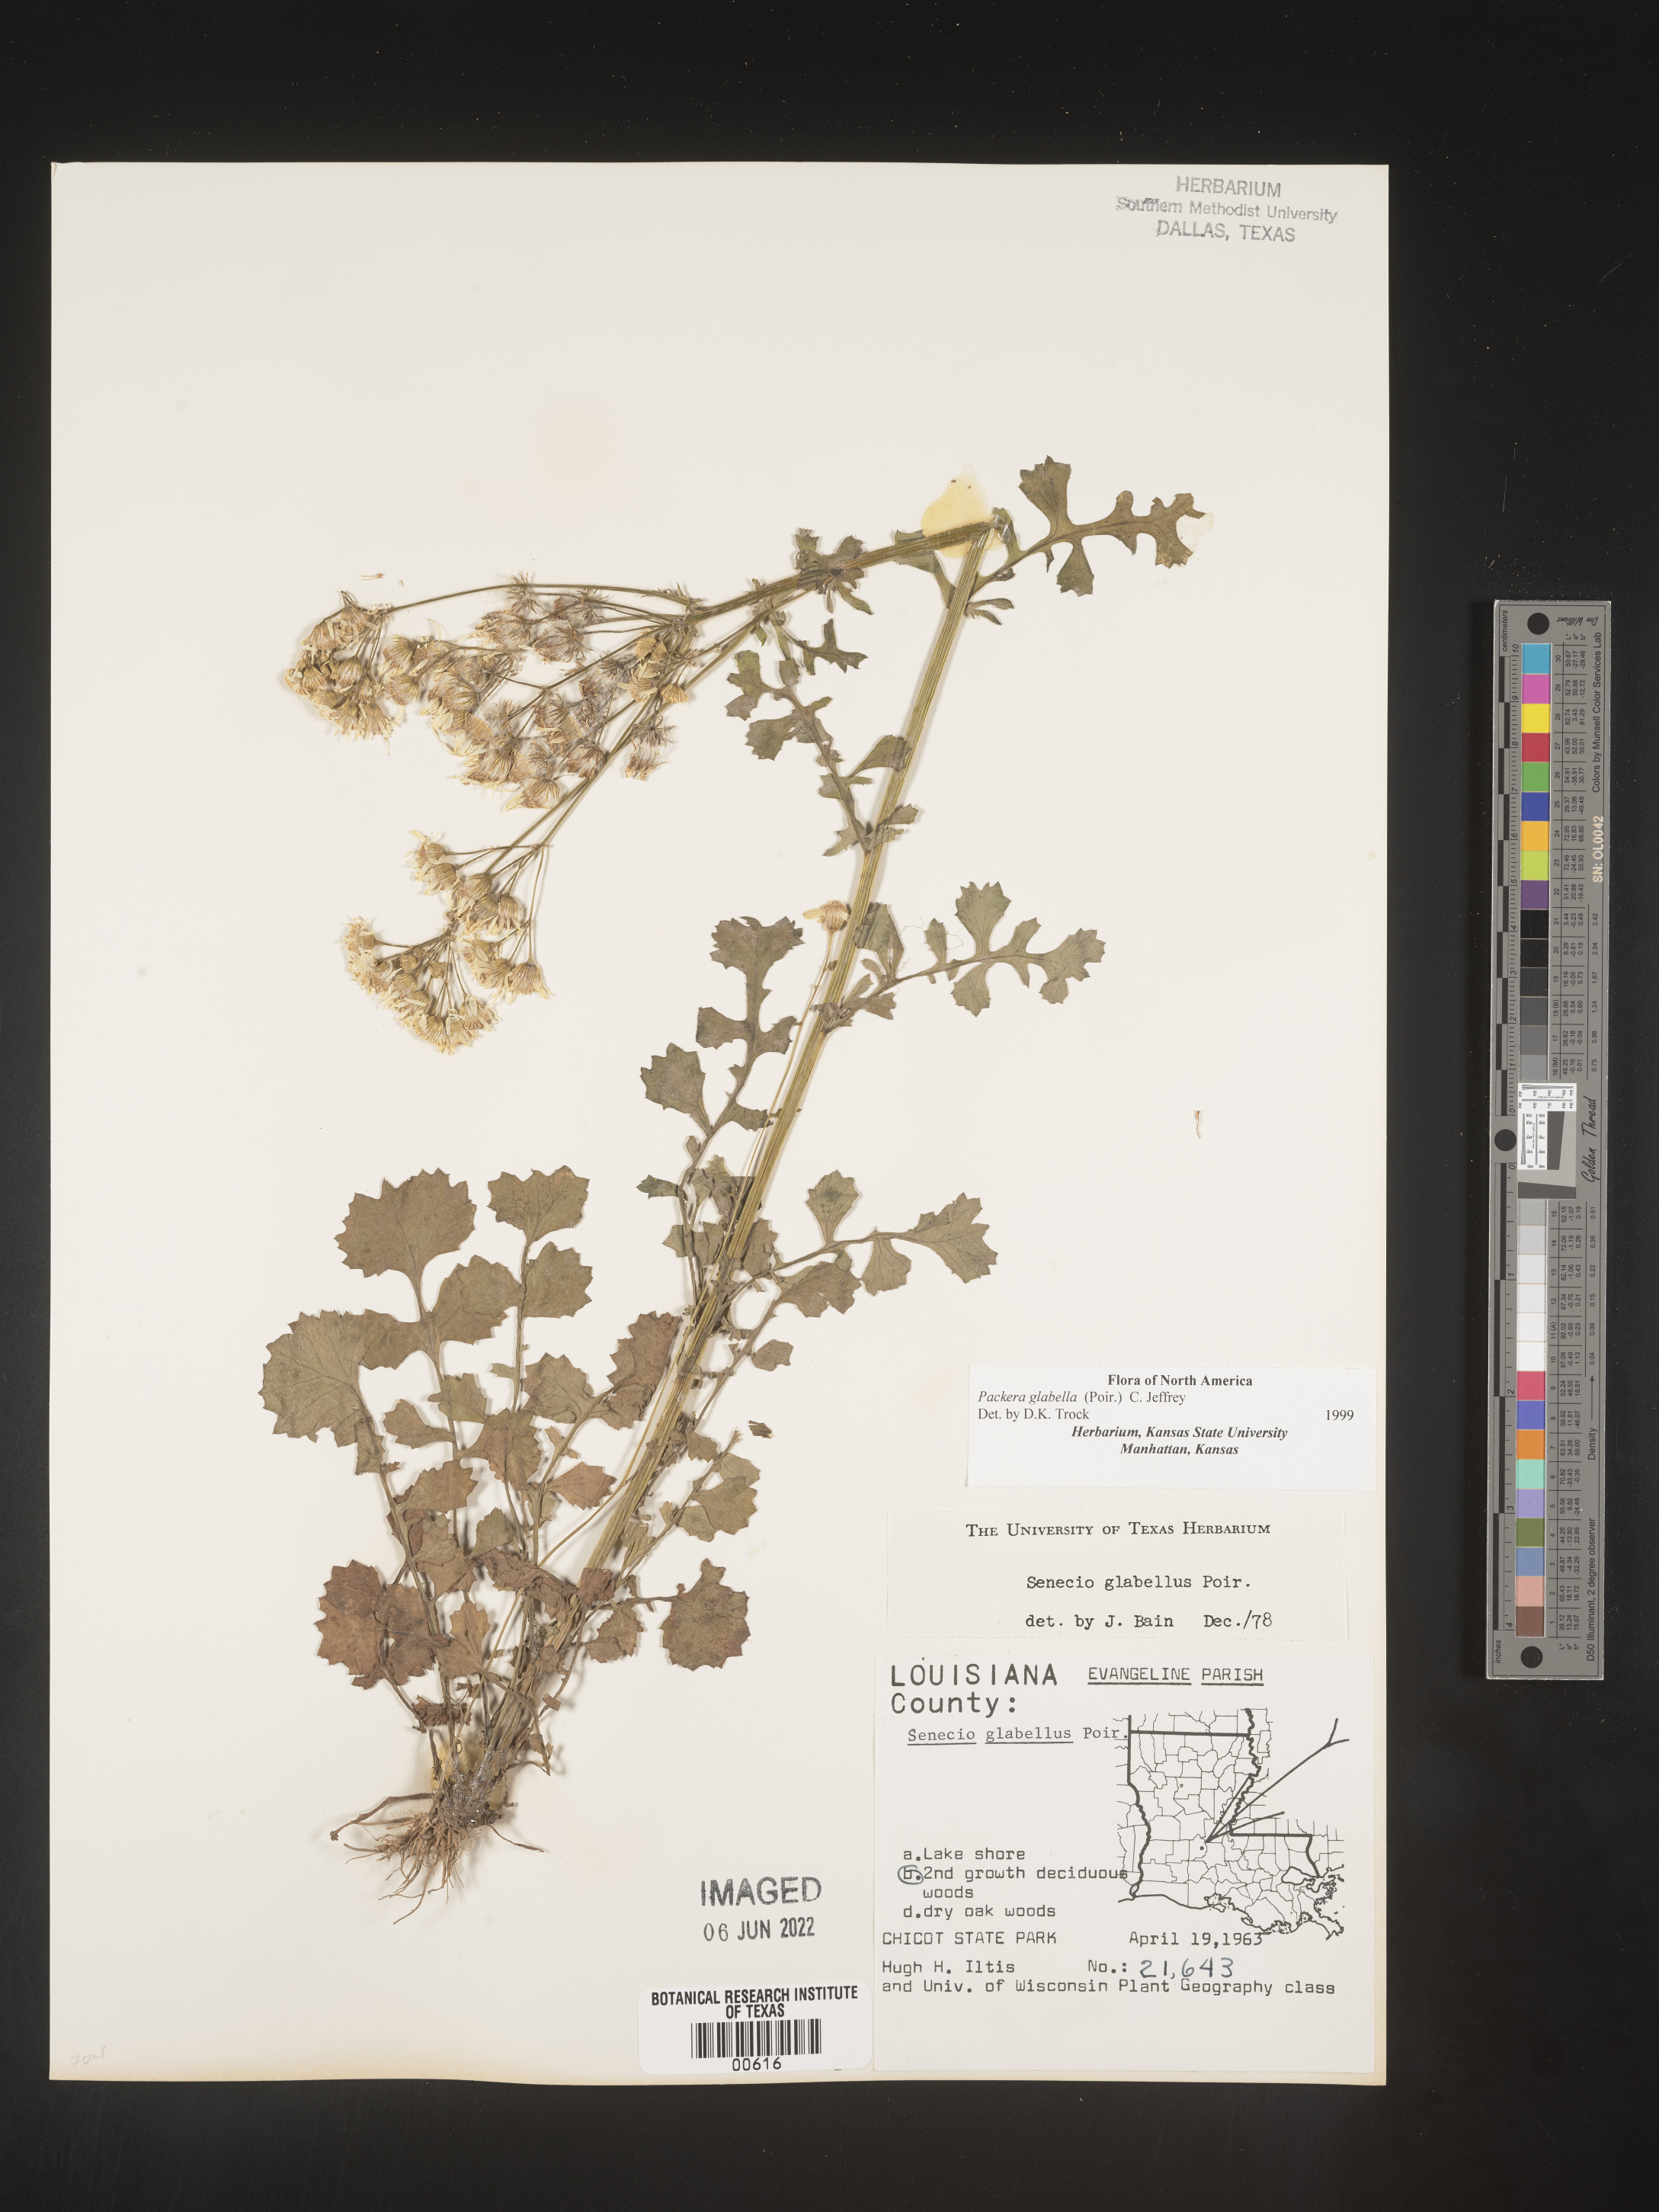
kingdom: Plantae
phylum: Tracheophyta
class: Magnoliopsida
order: Asterales
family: Asteraceae
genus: Packera
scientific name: Packera glabella
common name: Butterweed
